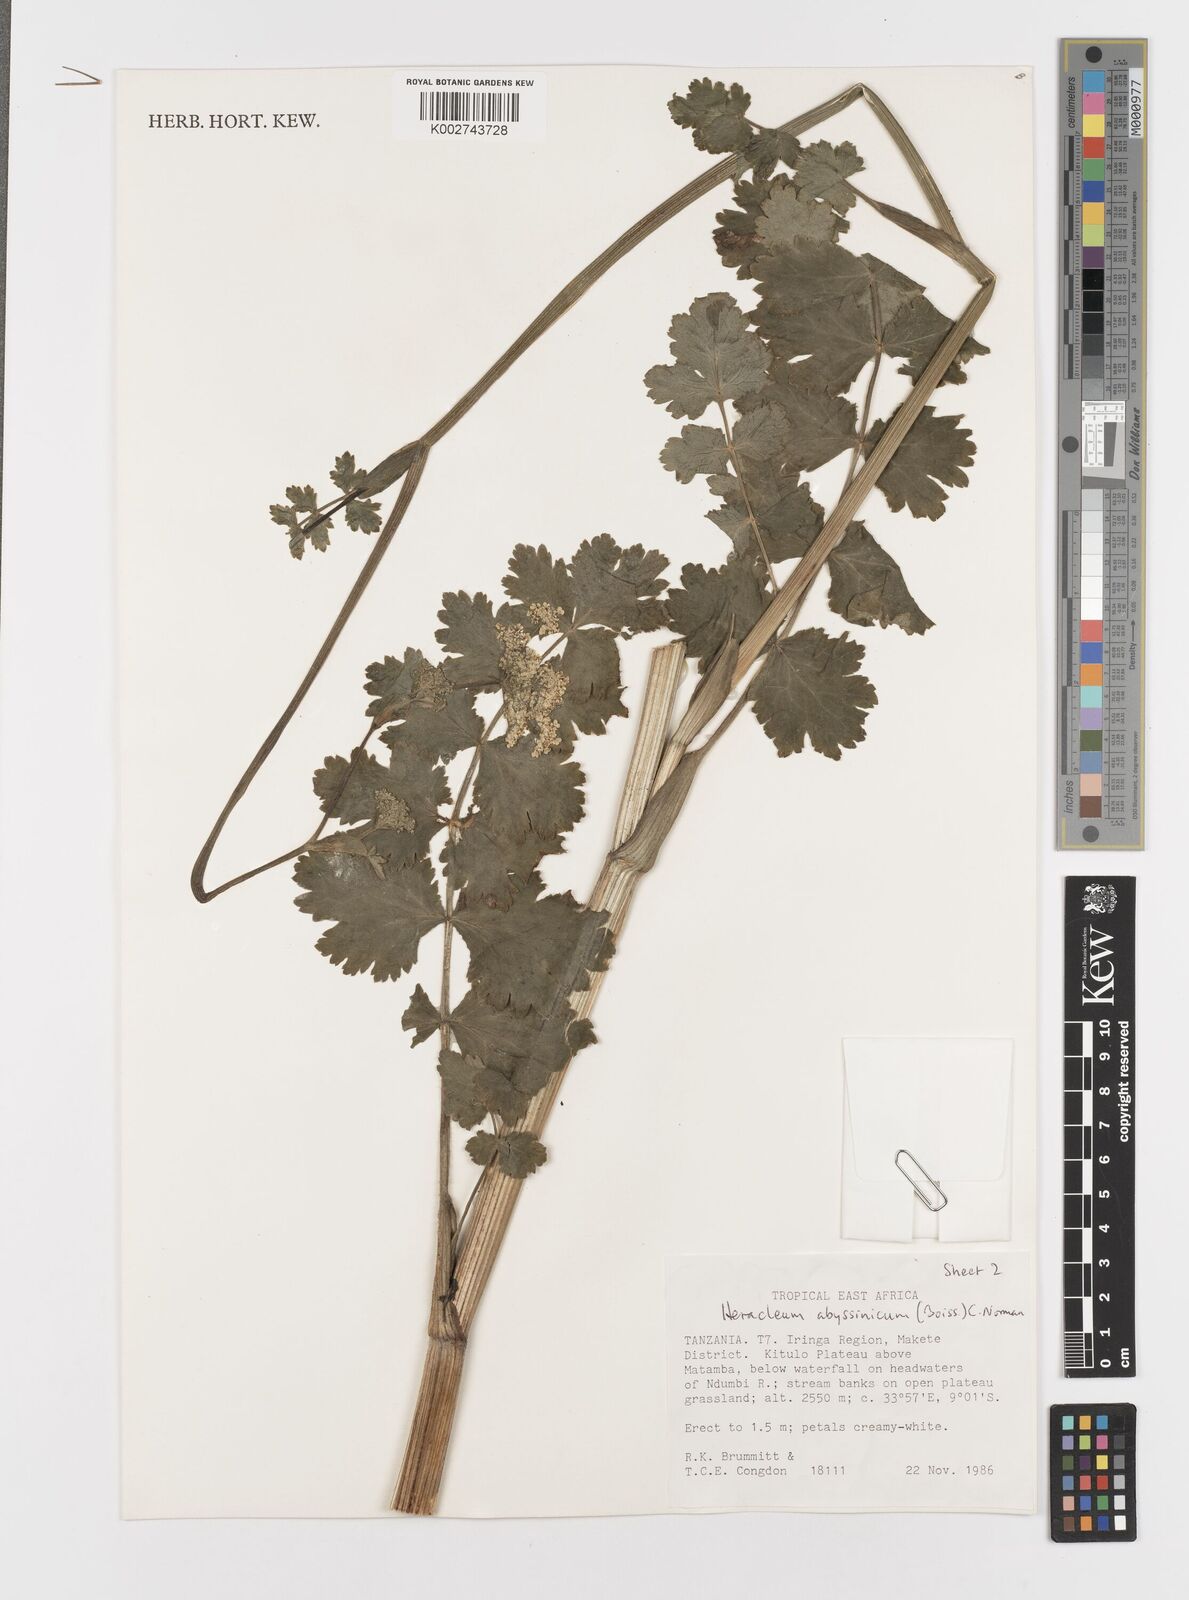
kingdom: Plantae
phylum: Tracheophyta
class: Magnoliopsida
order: Apiales
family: Apiaceae
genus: Heracleum
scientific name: Heracleum abyssinicum
